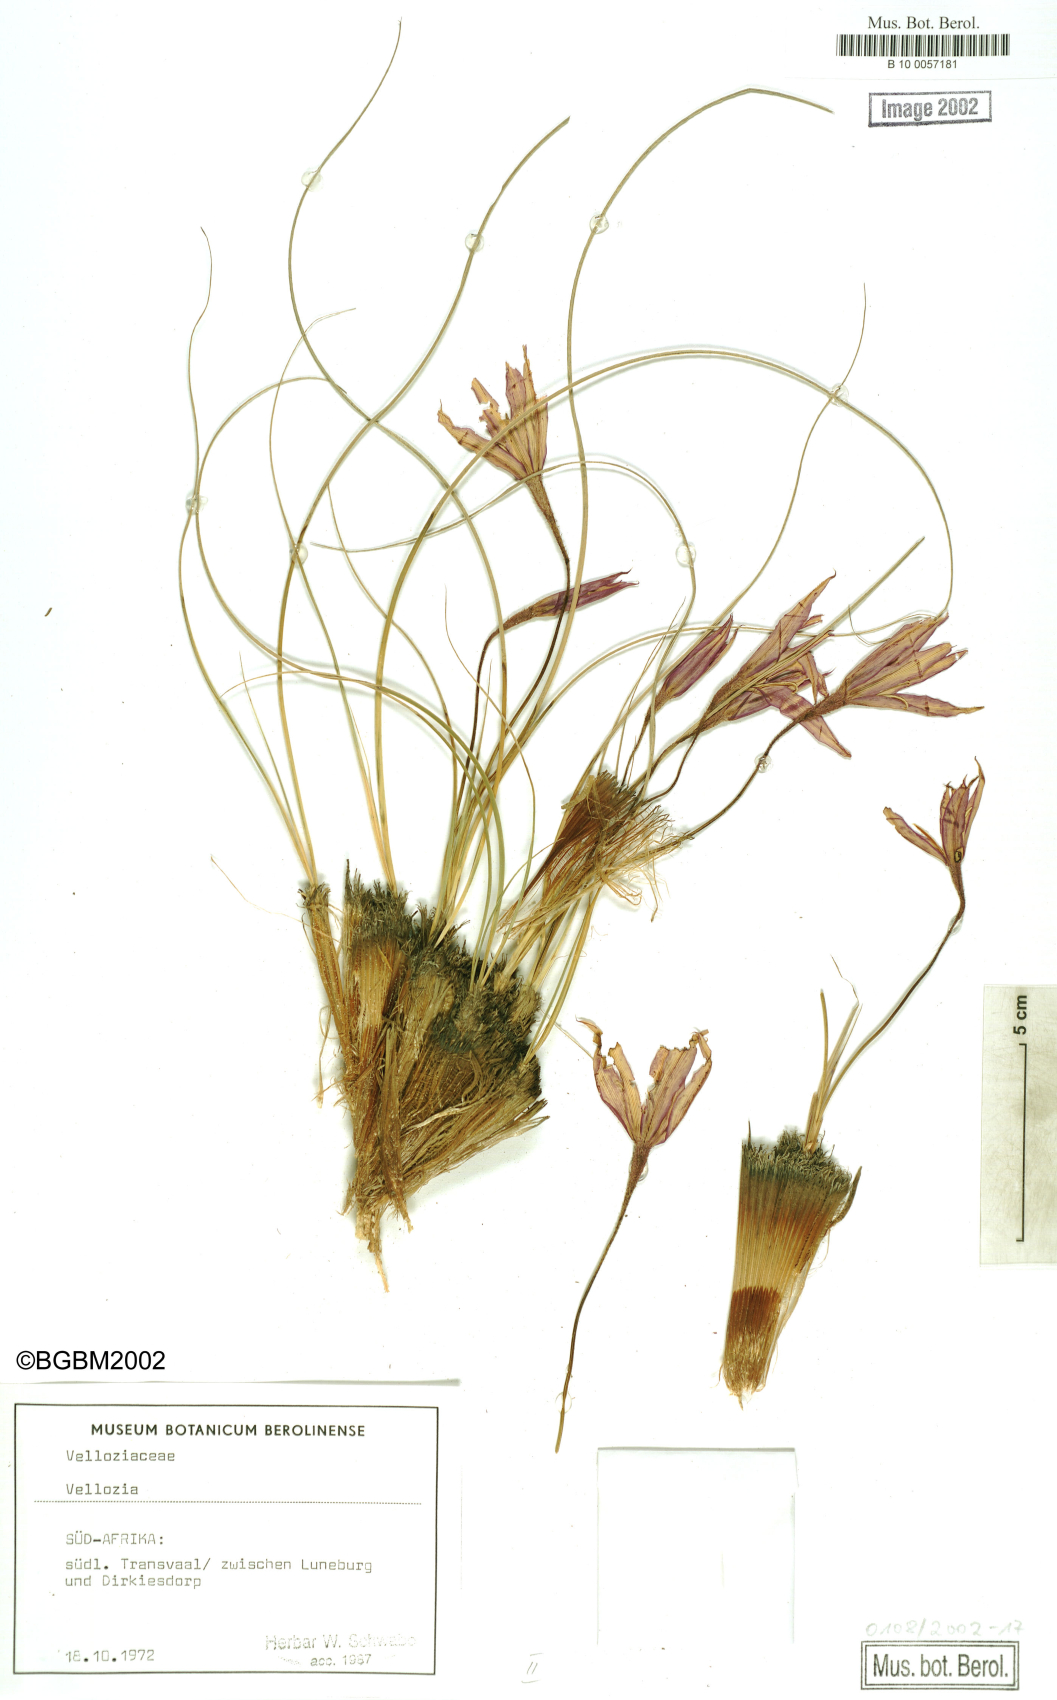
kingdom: Plantae
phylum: Tracheophyta
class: Liliopsida
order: Pandanales
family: Velloziaceae
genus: Vellozia
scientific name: Vellozia
